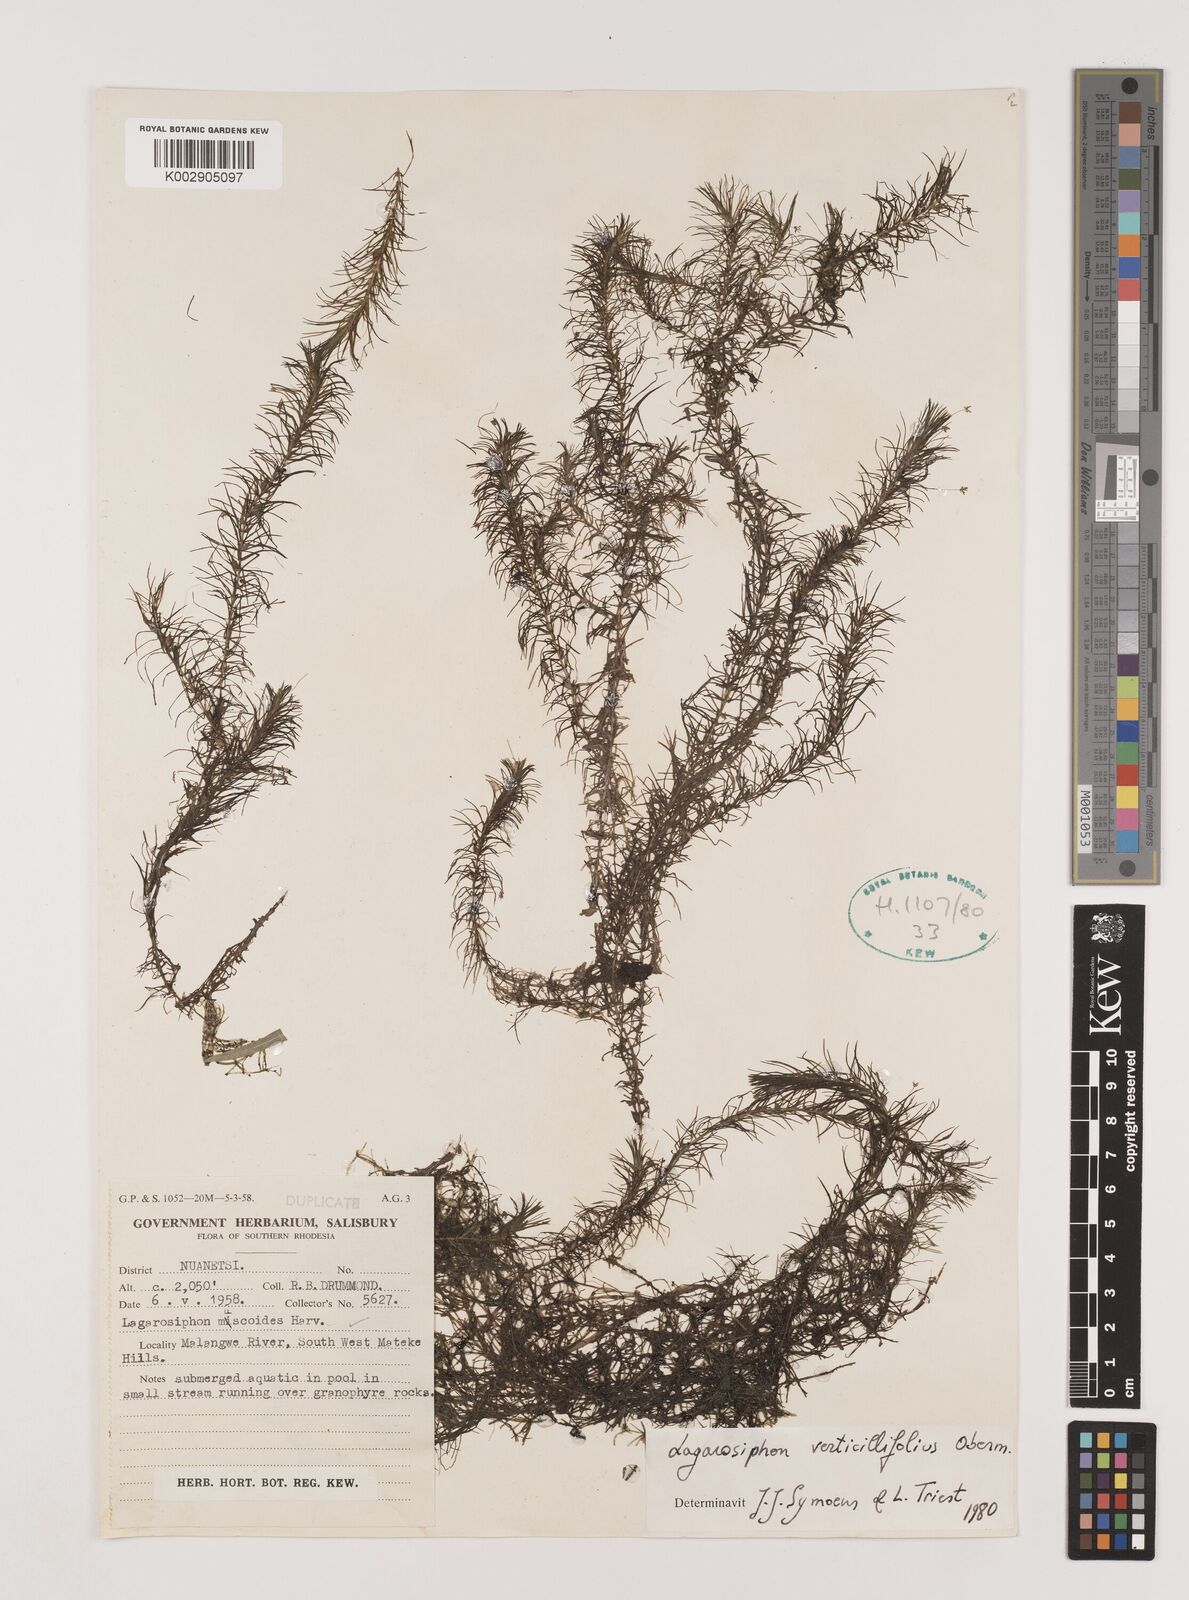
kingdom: Plantae
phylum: Tracheophyta
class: Liliopsida
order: Alismatales
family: Hydrocharitaceae
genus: Lagarosiphon
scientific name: Lagarosiphon verticillifolius
